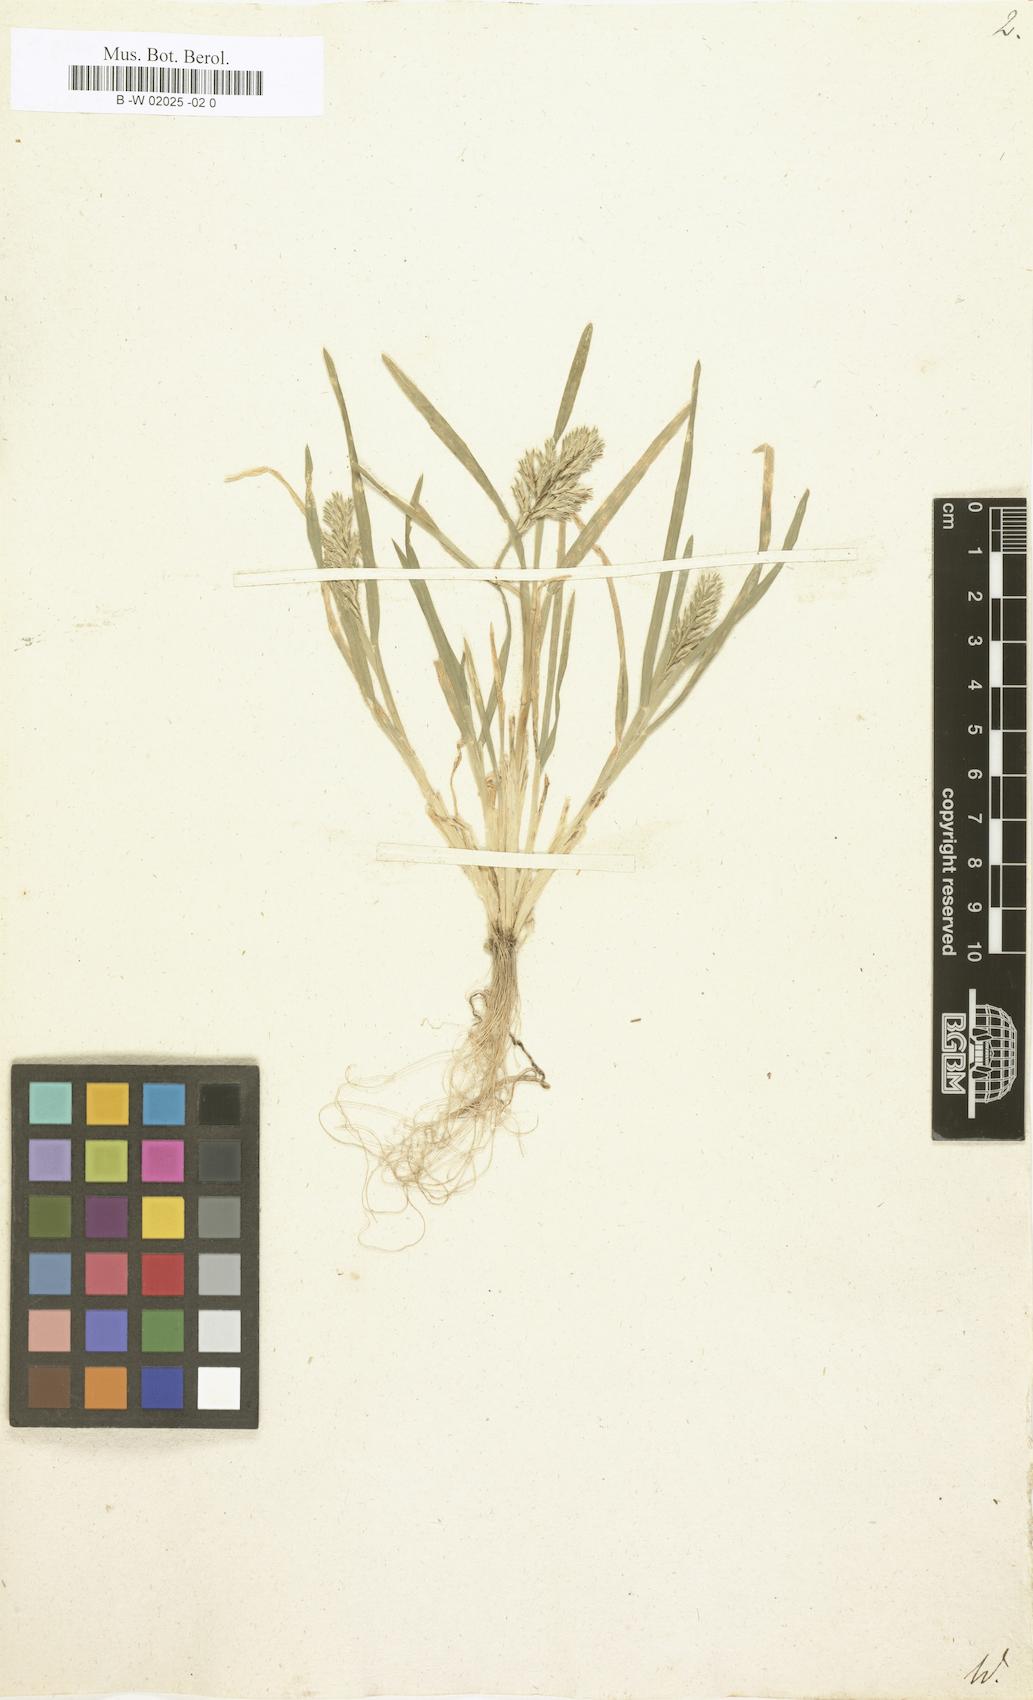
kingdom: Plantae
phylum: Tracheophyta
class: Liliopsida
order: Poales
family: Poaceae
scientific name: Poaceae
